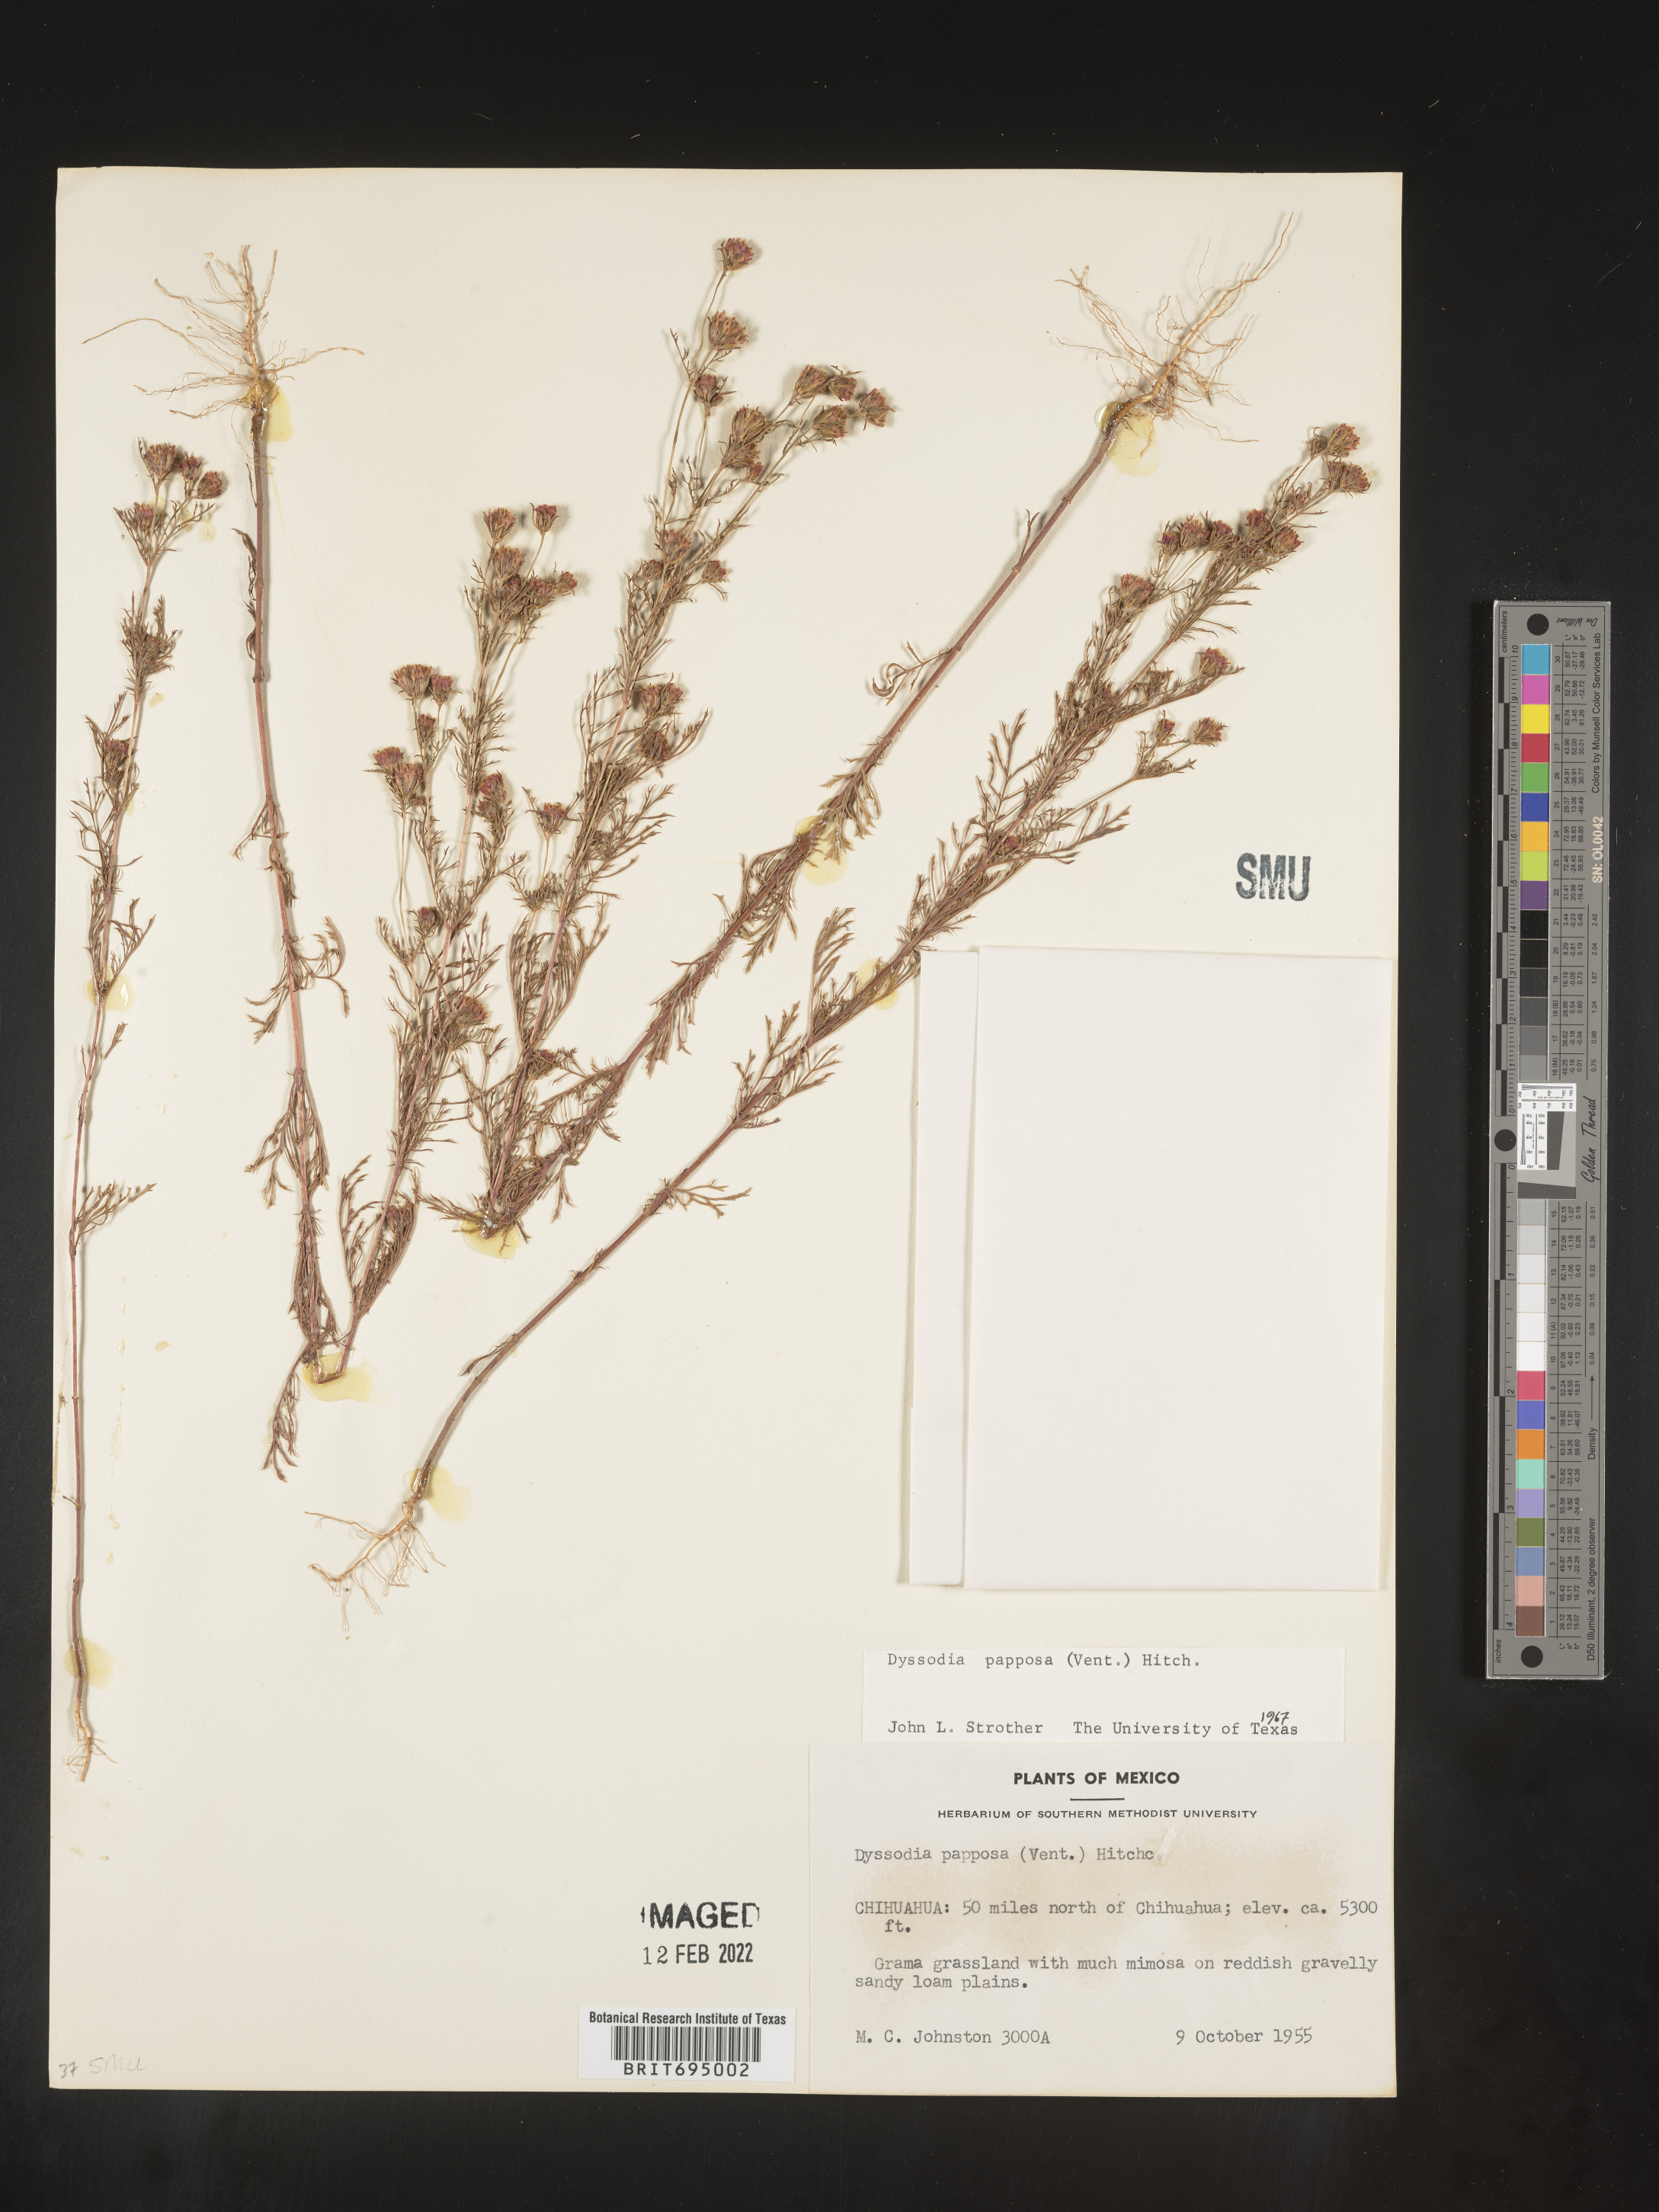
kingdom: Plantae
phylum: Tracheophyta
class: Magnoliopsida
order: Asterales
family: Asteraceae
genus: Dyssodia
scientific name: Dyssodia papposa
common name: Dogweed
